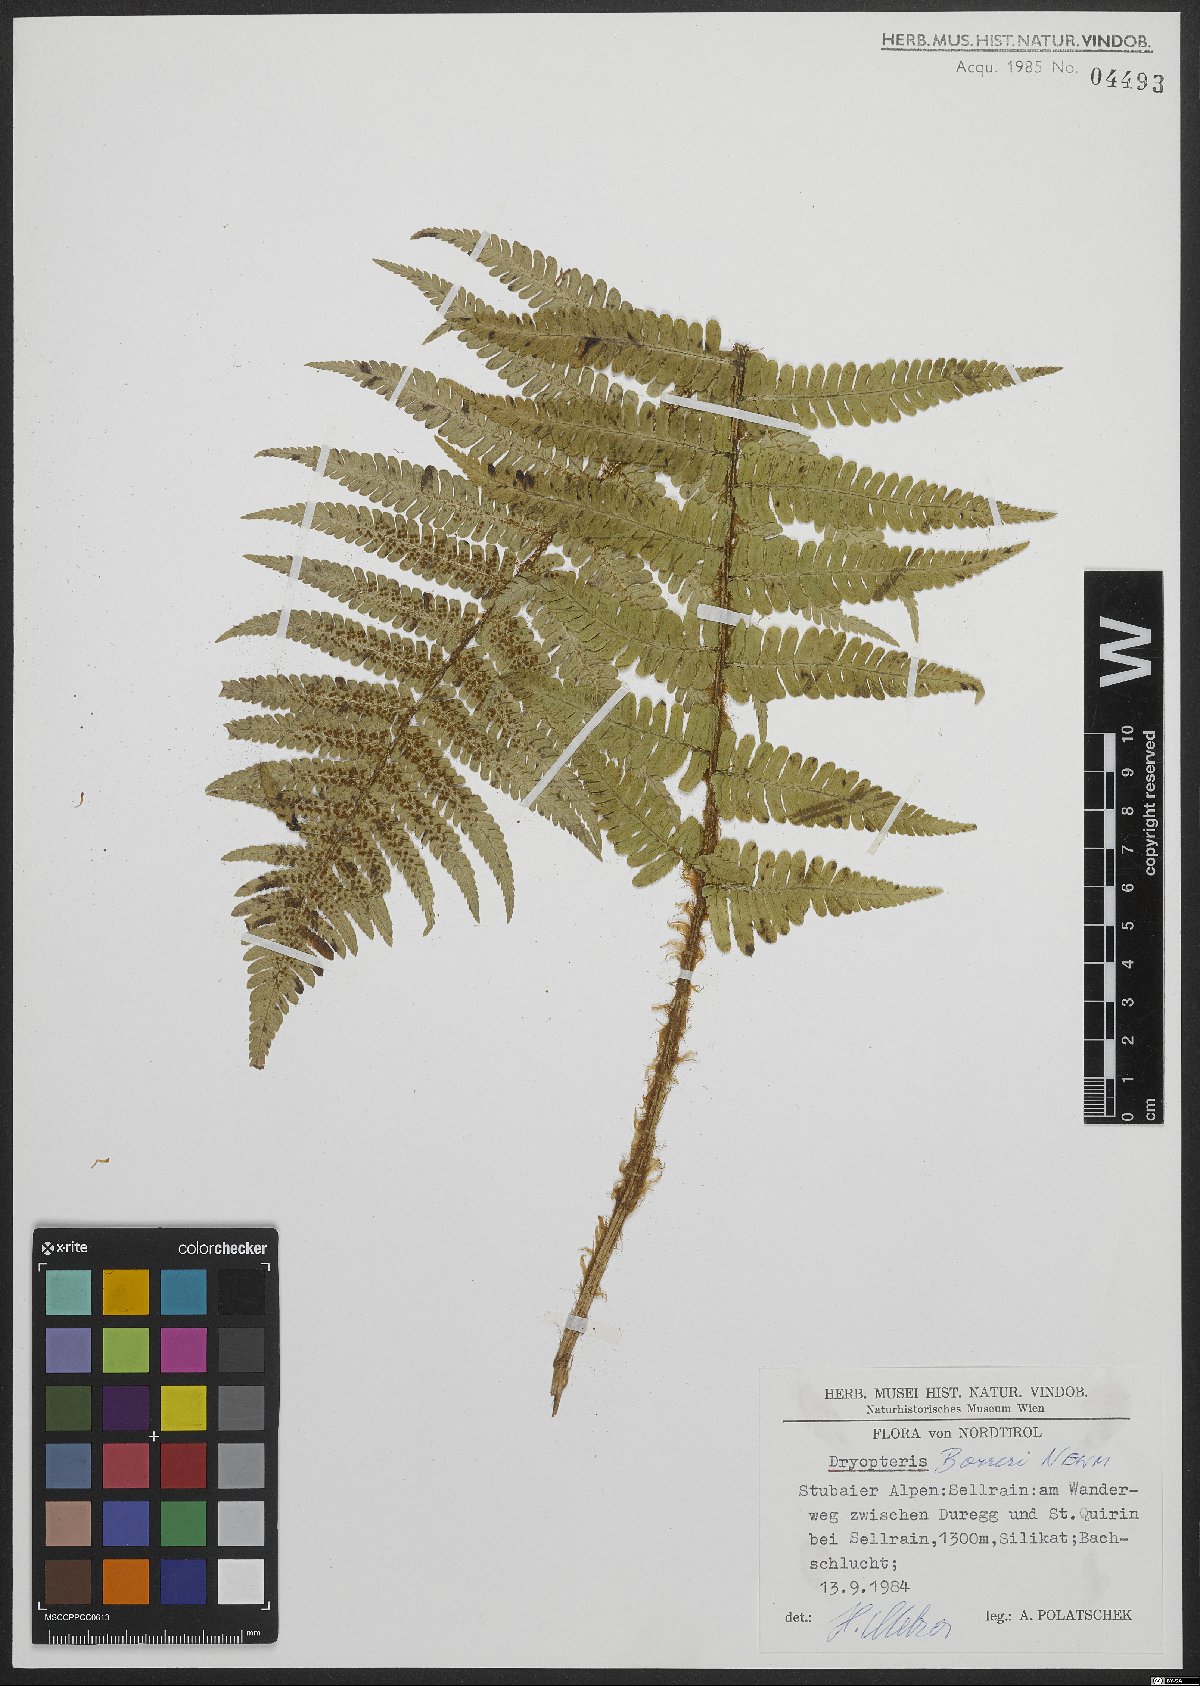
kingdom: Plantae
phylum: Tracheophyta
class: Polypodiopsida
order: Polypodiales
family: Dryopteridaceae
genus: Dryopteris
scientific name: Dryopteris borreri
